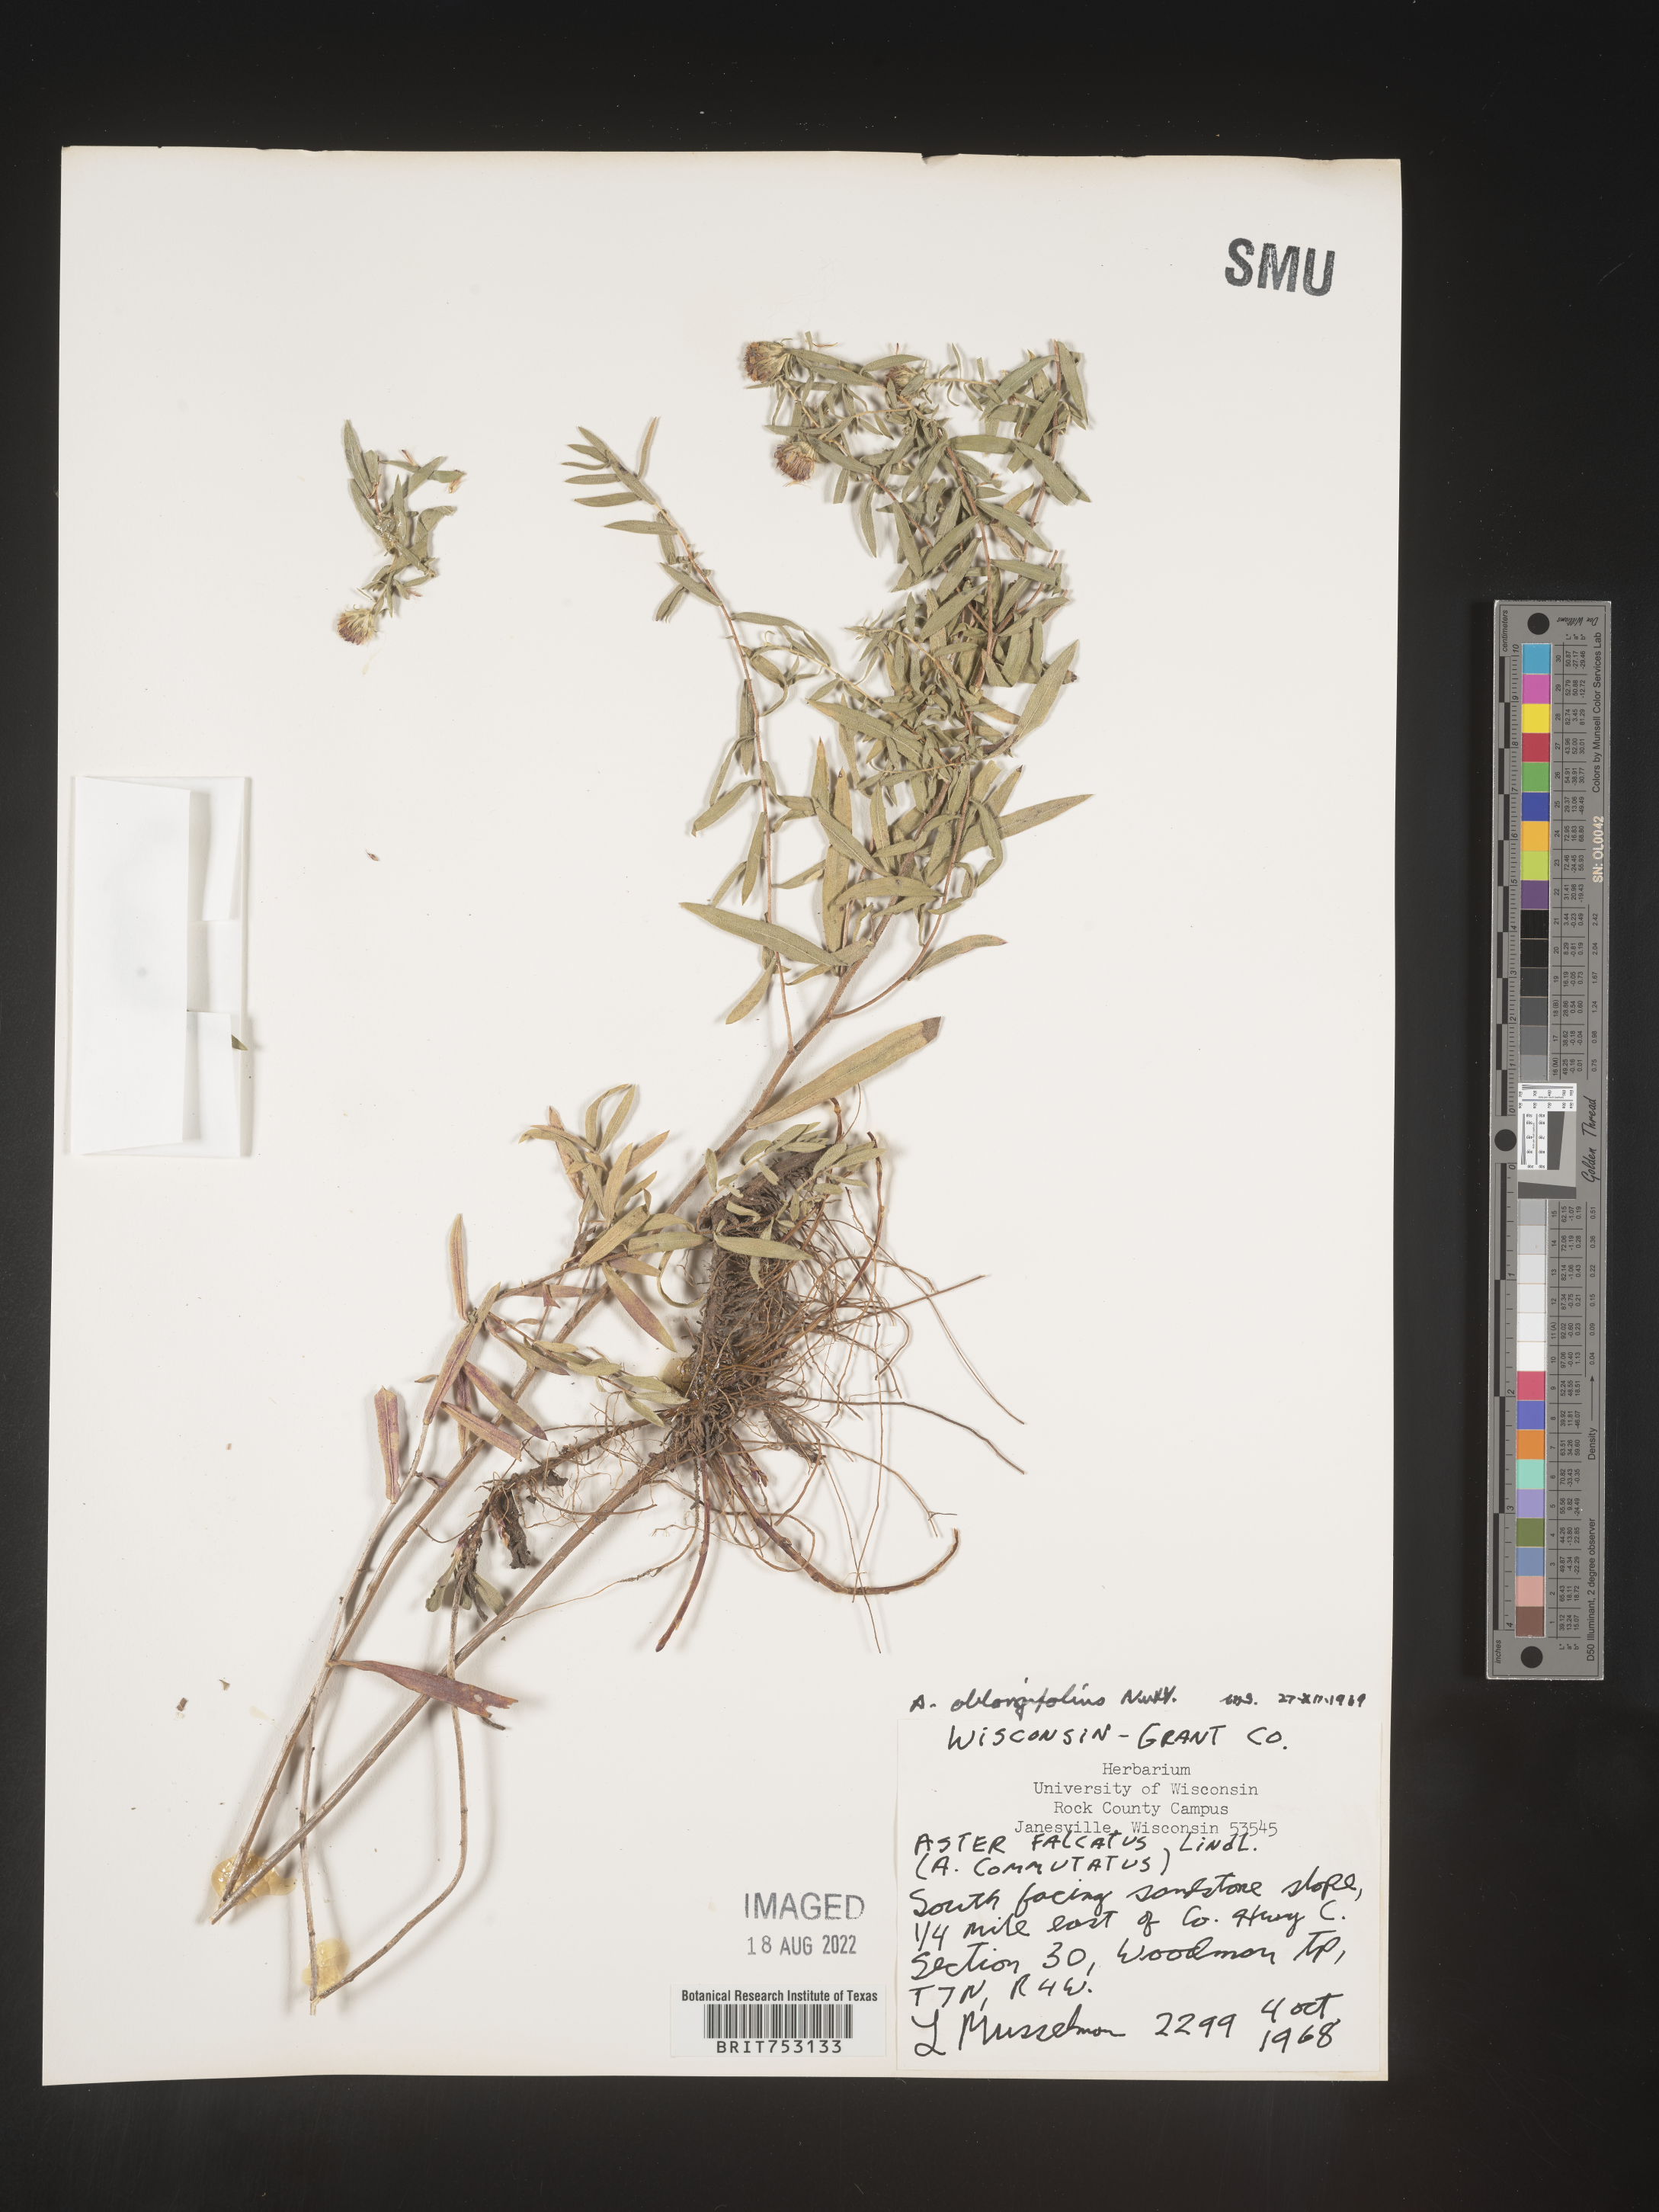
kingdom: Plantae
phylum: Tracheophyta
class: Magnoliopsida
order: Asterales
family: Asteraceae
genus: Symphyotrichum
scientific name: Symphyotrichum oblongifolium
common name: Aromatic aster
